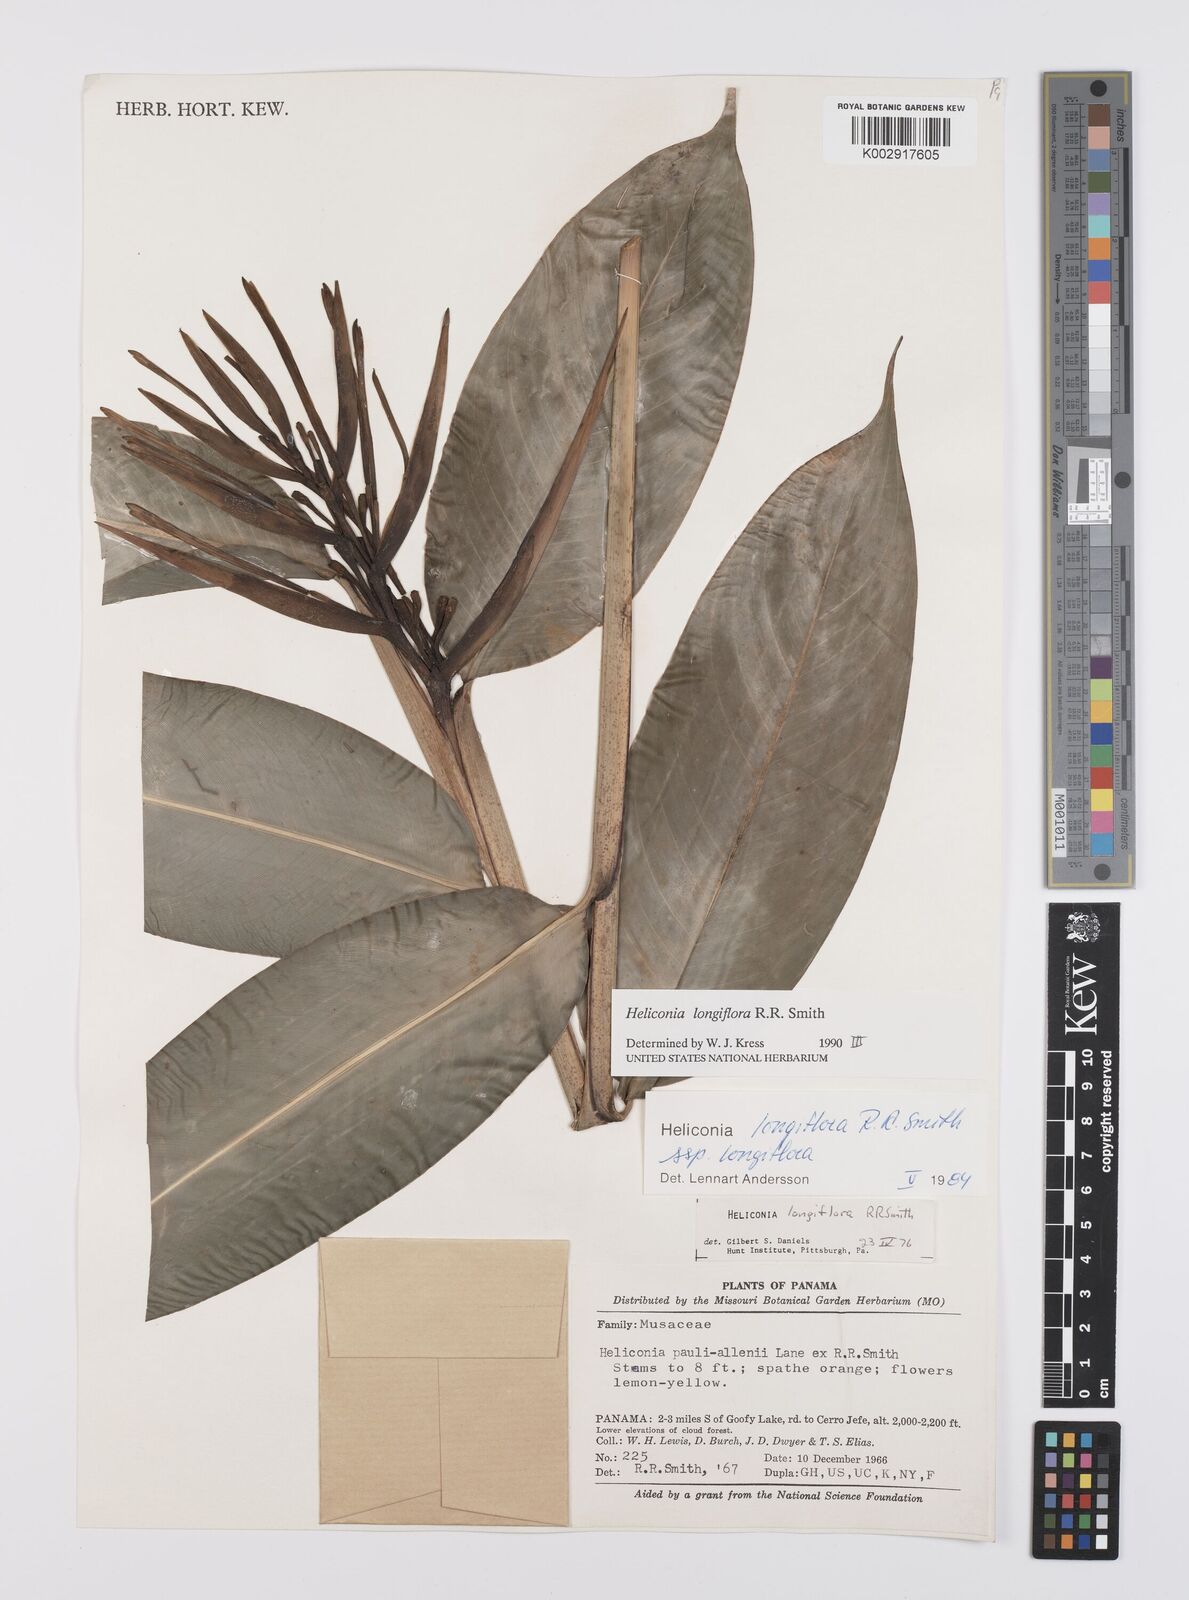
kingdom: Plantae
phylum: Tracheophyta
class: Liliopsida
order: Zingiberales
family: Heliconiaceae
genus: Heliconia
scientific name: Heliconia longiflora
